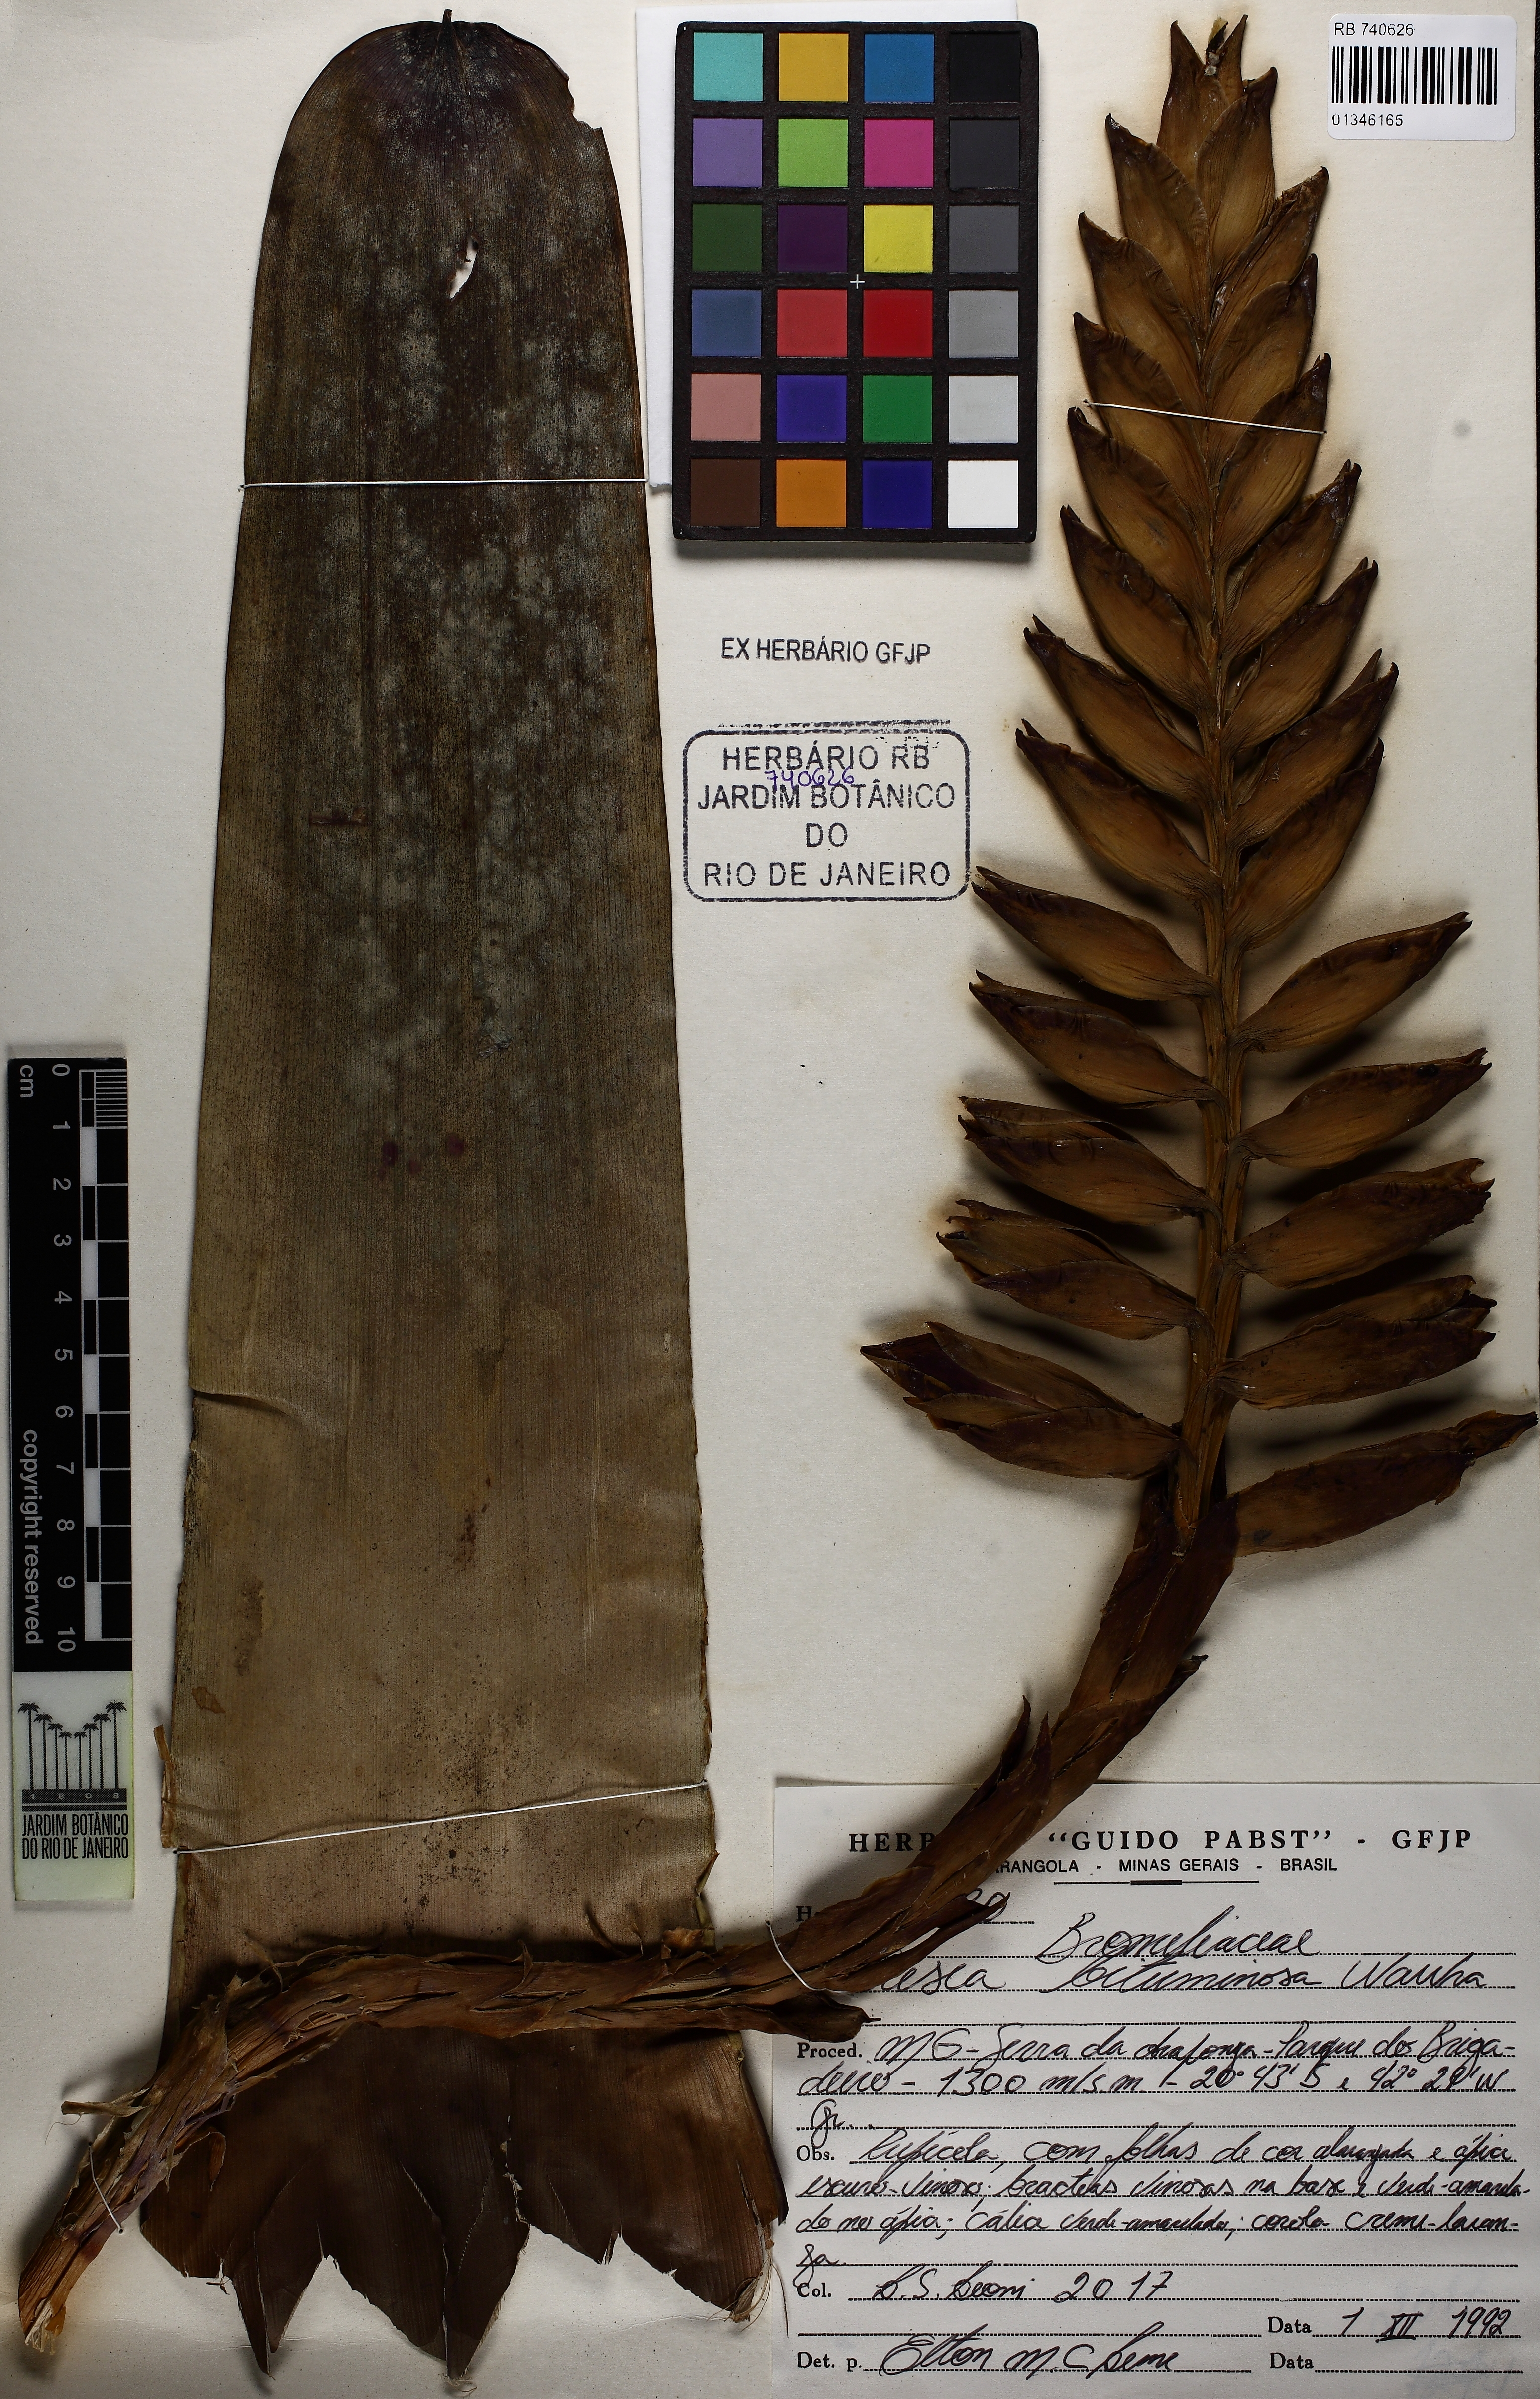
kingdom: Plantae
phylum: Tracheophyta
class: Liliopsida
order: Poales
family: Bromeliaceae
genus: Vriesea
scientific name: Vriesea bituminosa
